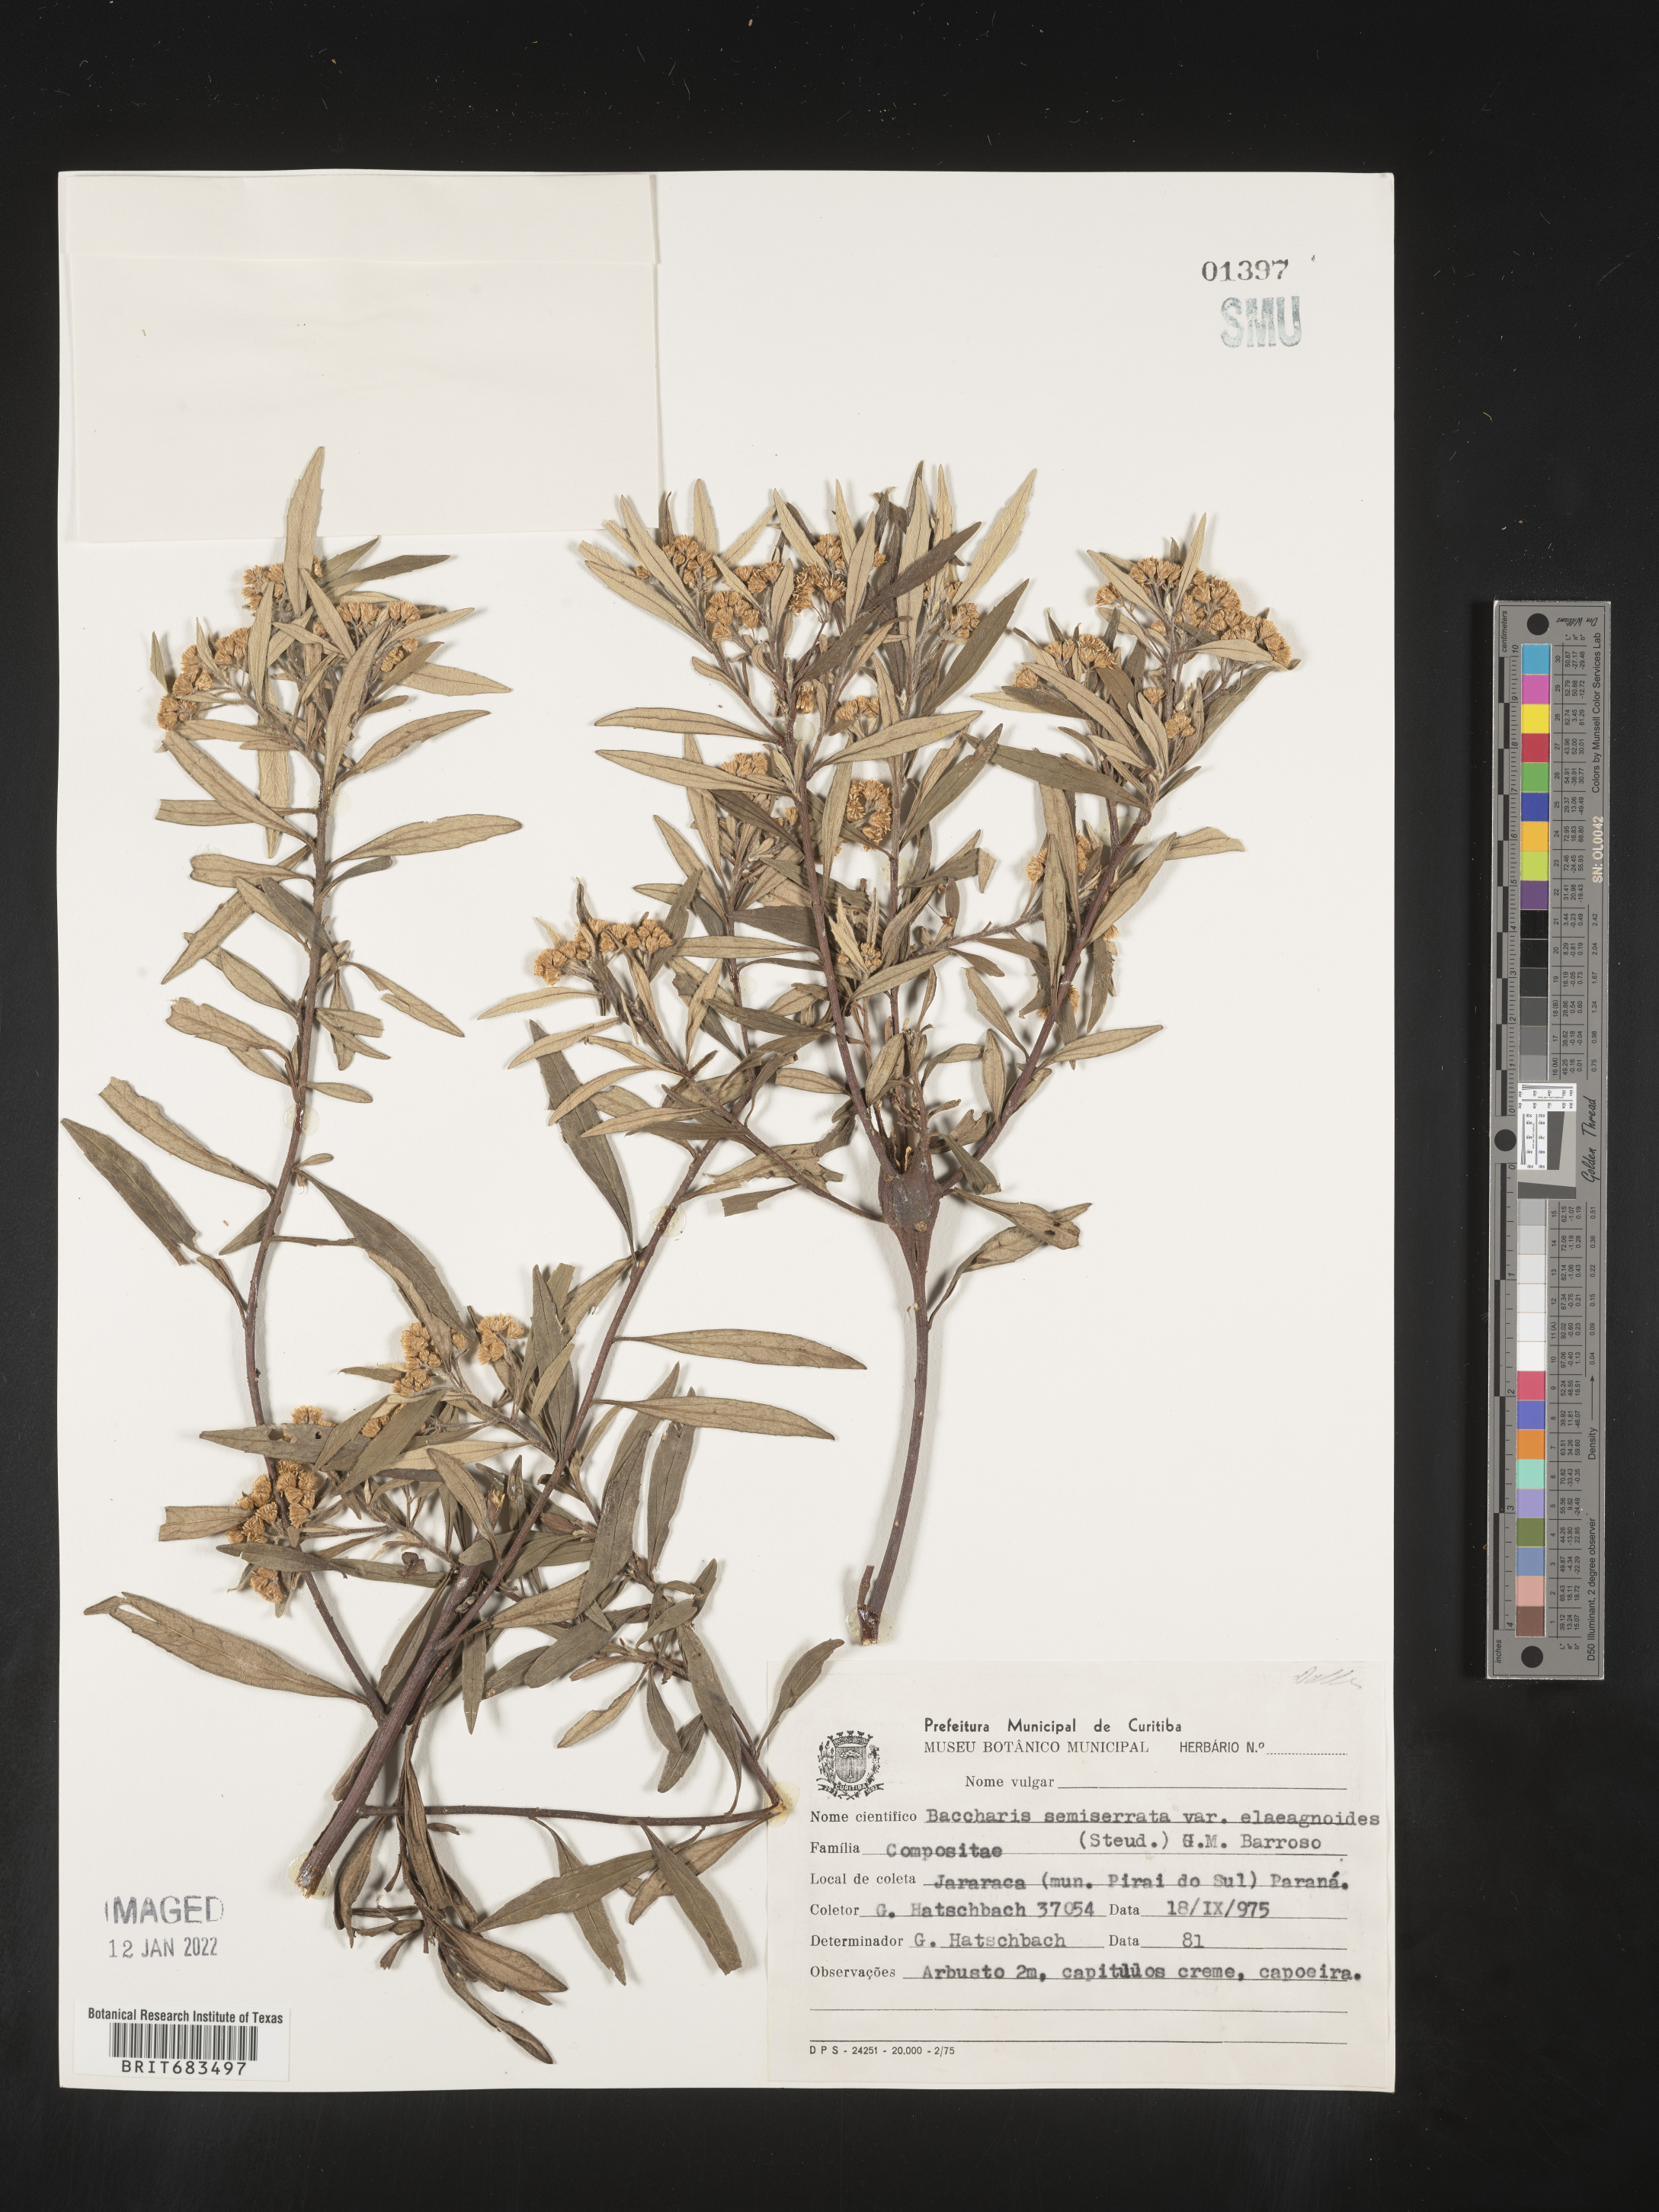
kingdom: Plantae
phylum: Tracheophyta
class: Magnoliopsida
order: Asterales
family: Asteraceae
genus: Baccharis
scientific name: Baccharis
